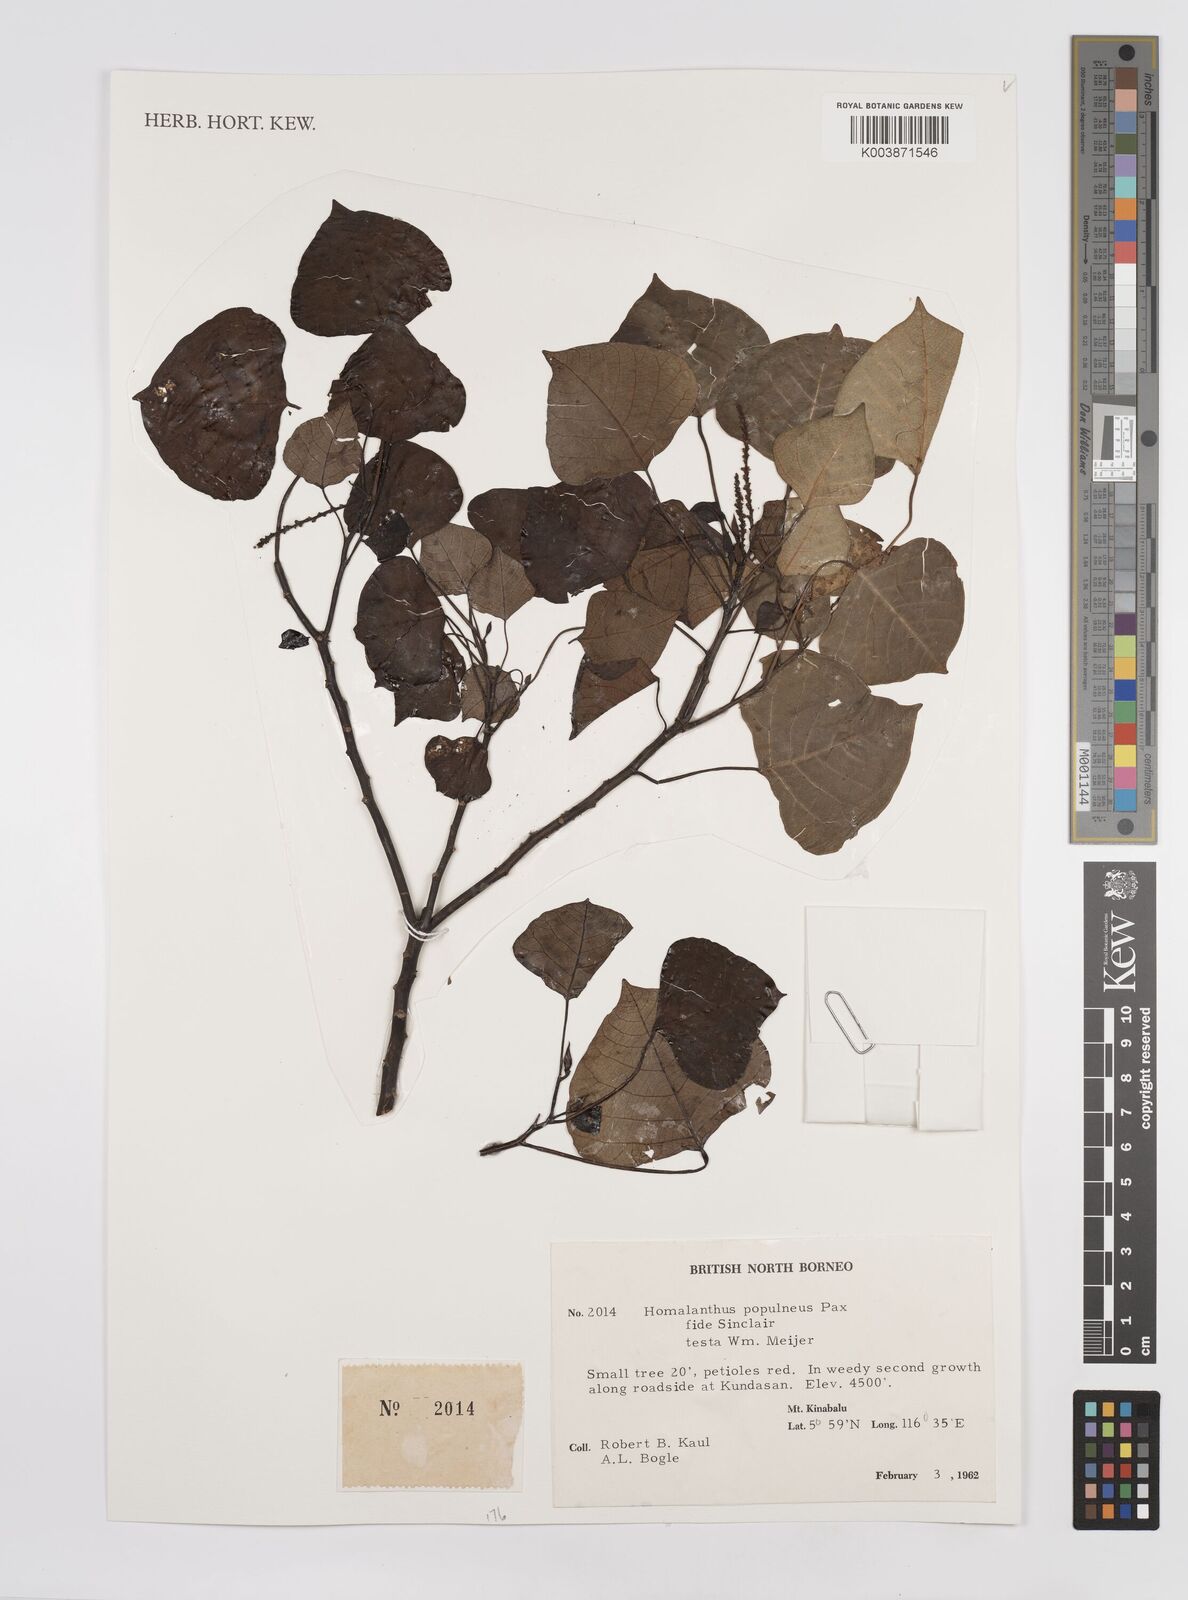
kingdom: Plantae
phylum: Tracheophyta
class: Magnoliopsida
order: Malpighiales
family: Euphorbiaceae
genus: Homalanthus
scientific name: Homalanthus populneus
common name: Spurge
